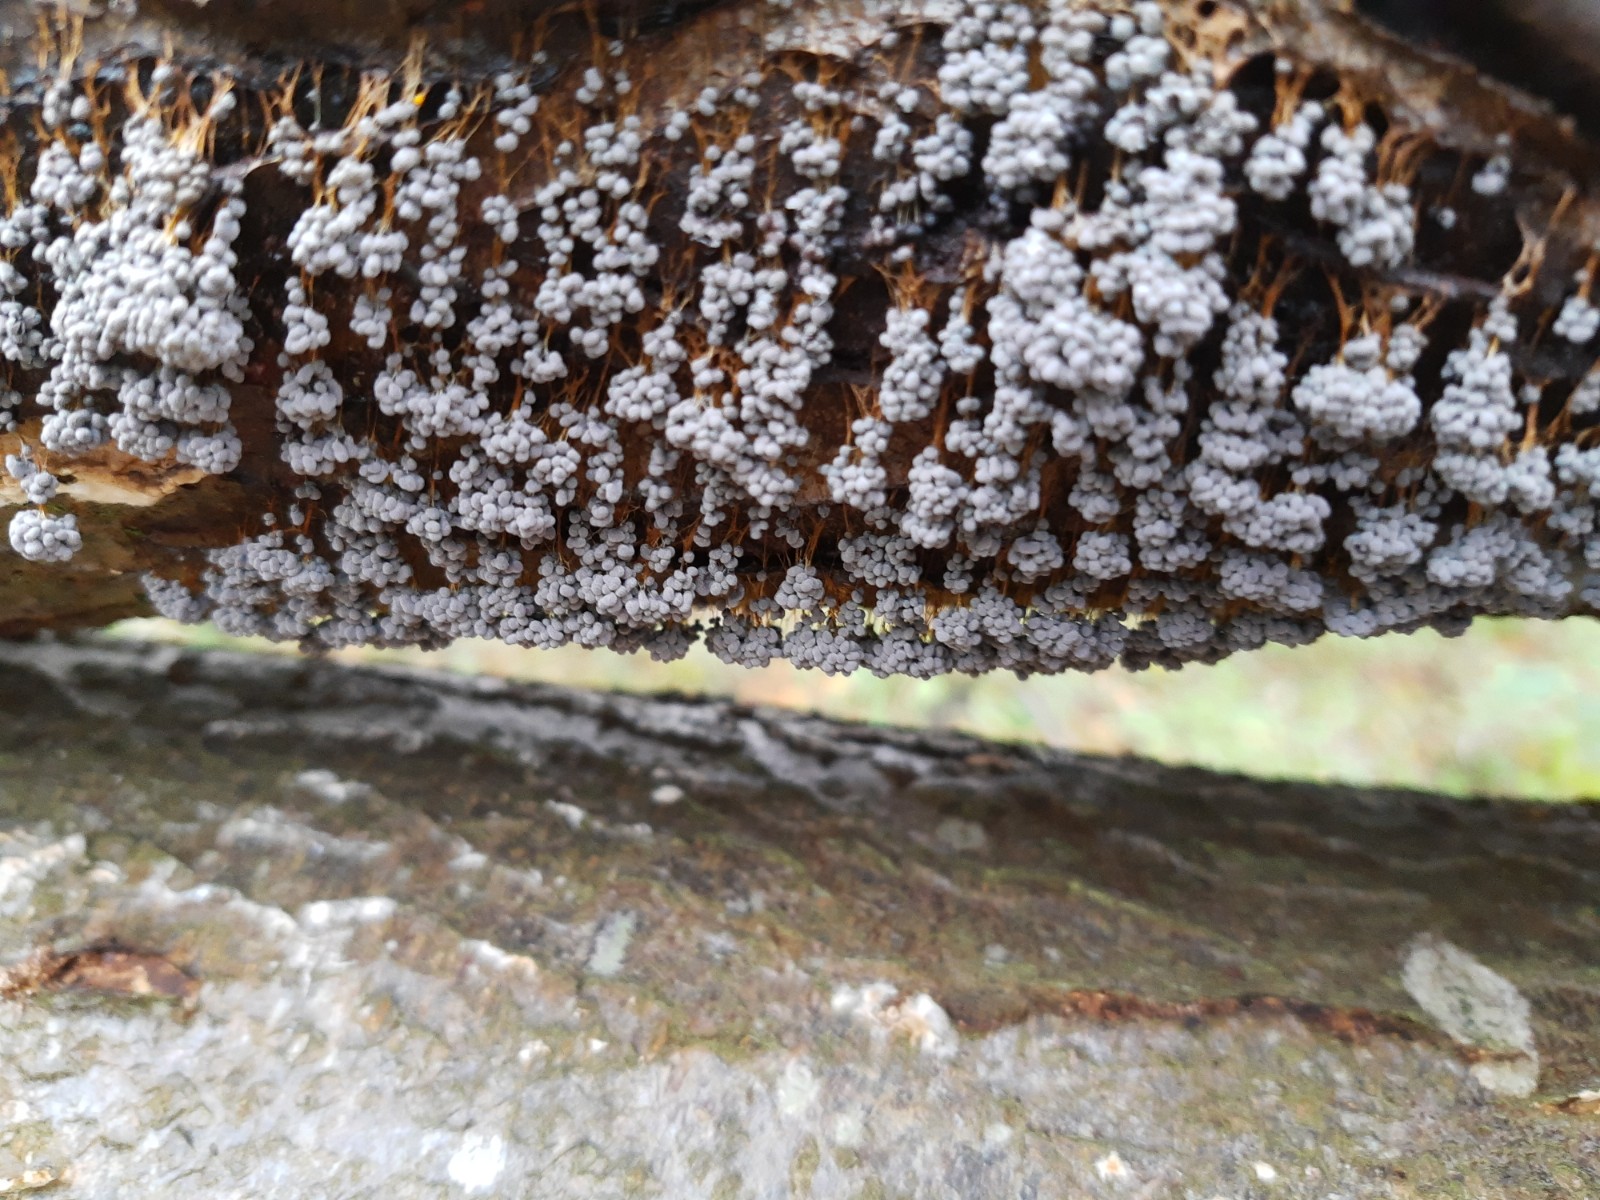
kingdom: Protozoa
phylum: Mycetozoa
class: Myxomycetes
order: Physarales
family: Physaraceae
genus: Badhamia
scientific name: Badhamia utricularis
